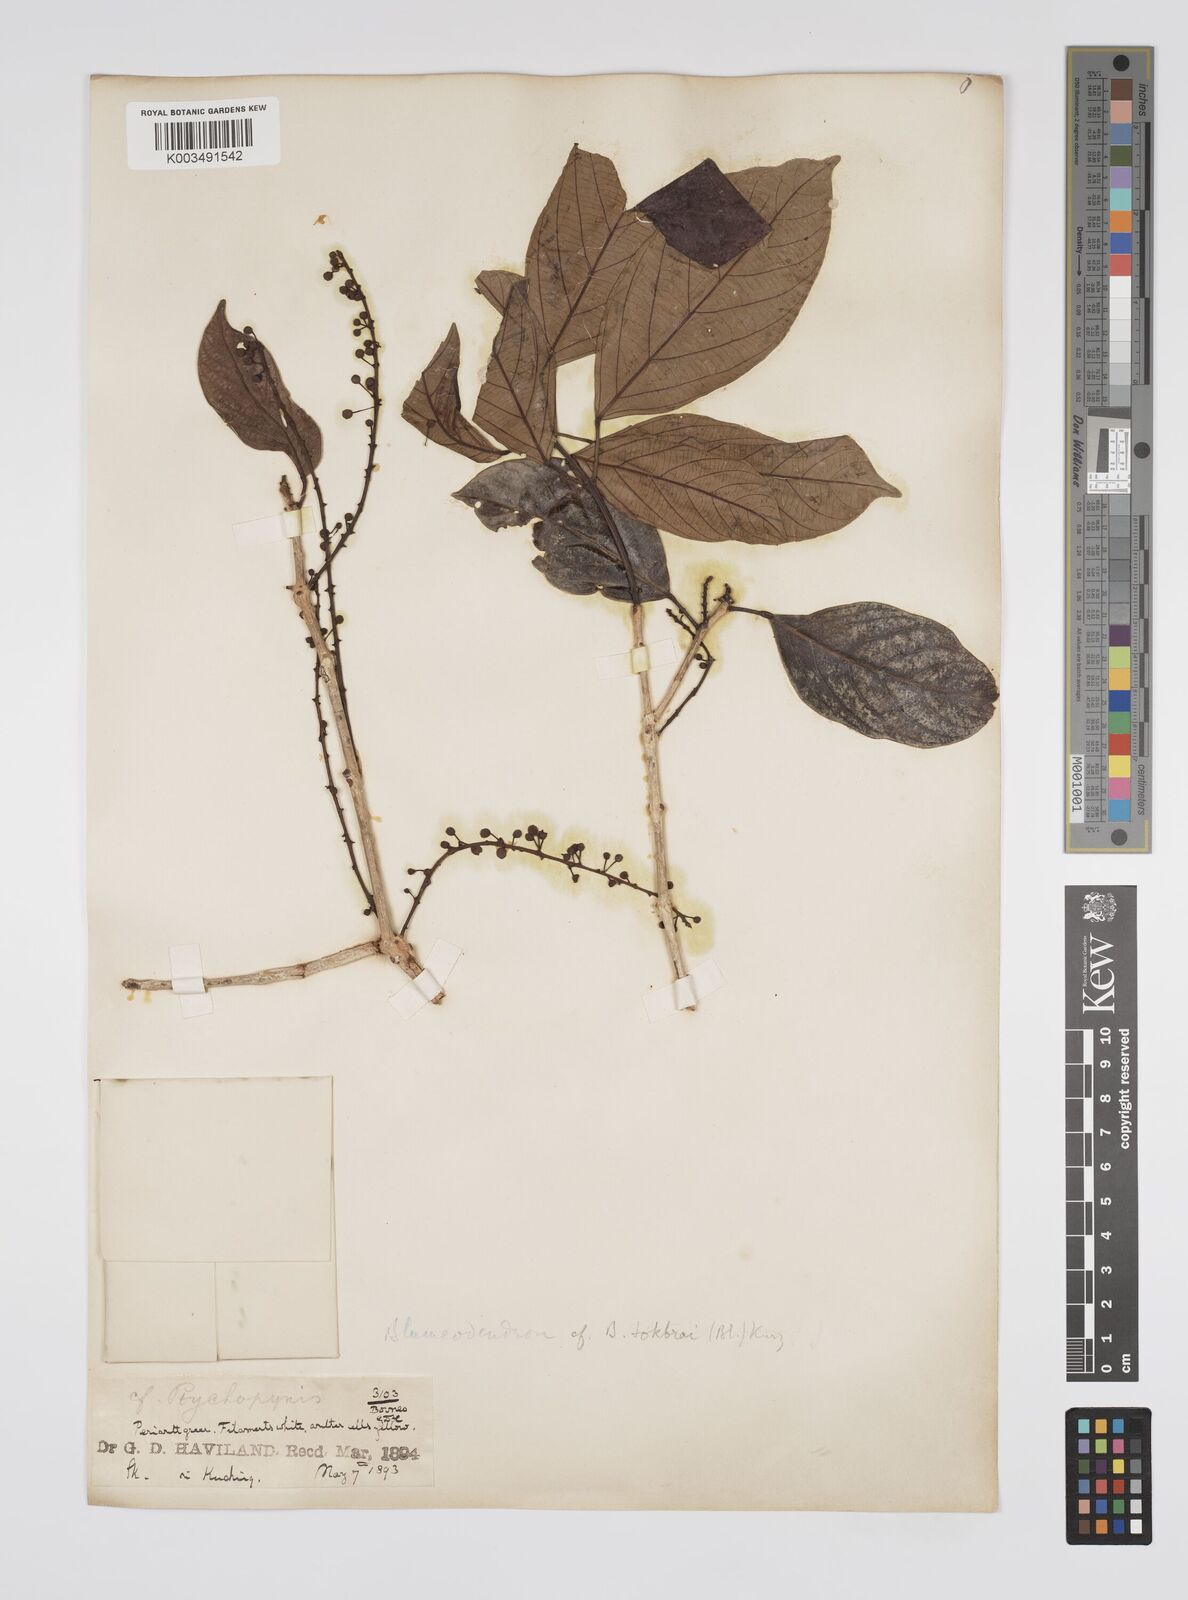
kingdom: Plantae
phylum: Tracheophyta
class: Magnoliopsida
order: Malpighiales
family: Euphorbiaceae
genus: Blumeodendron
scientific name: Blumeodendron tokbrai
